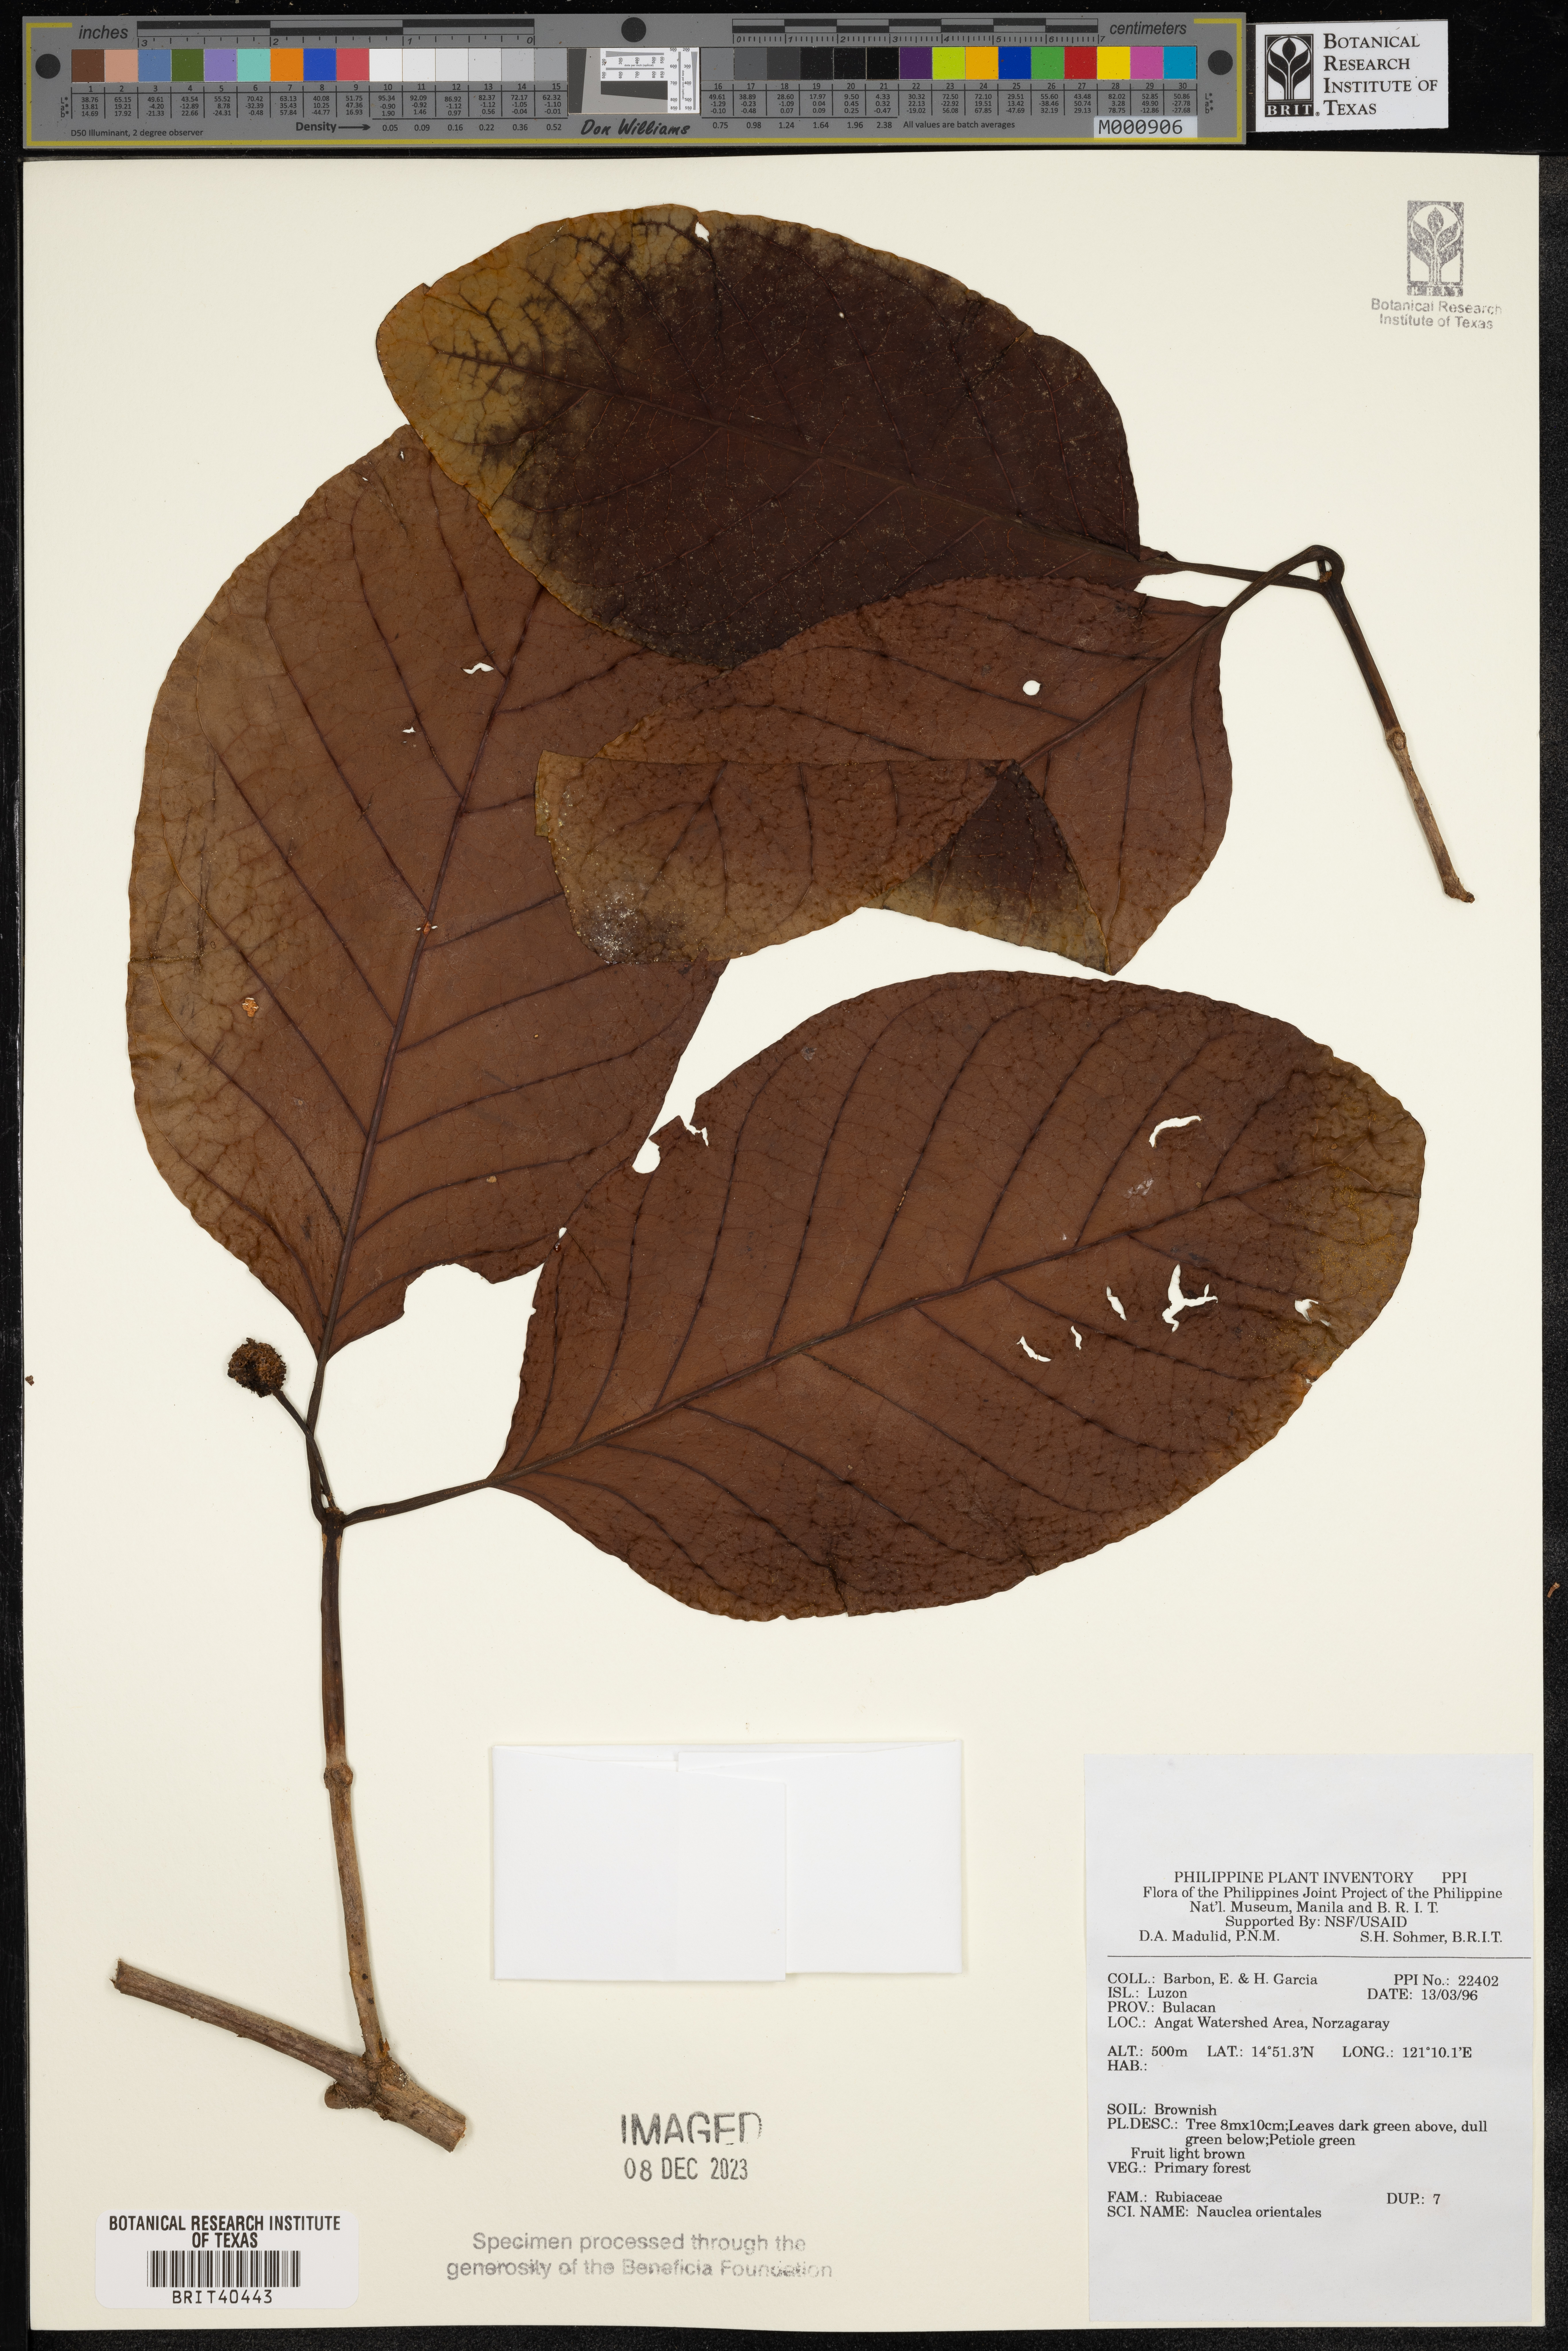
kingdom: Plantae
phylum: Tracheophyta
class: Magnoliopsida
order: Gentianales
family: Rubiaceae
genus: Nauclea
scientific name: Nauclea orientalis
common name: Leichhardt-pine
